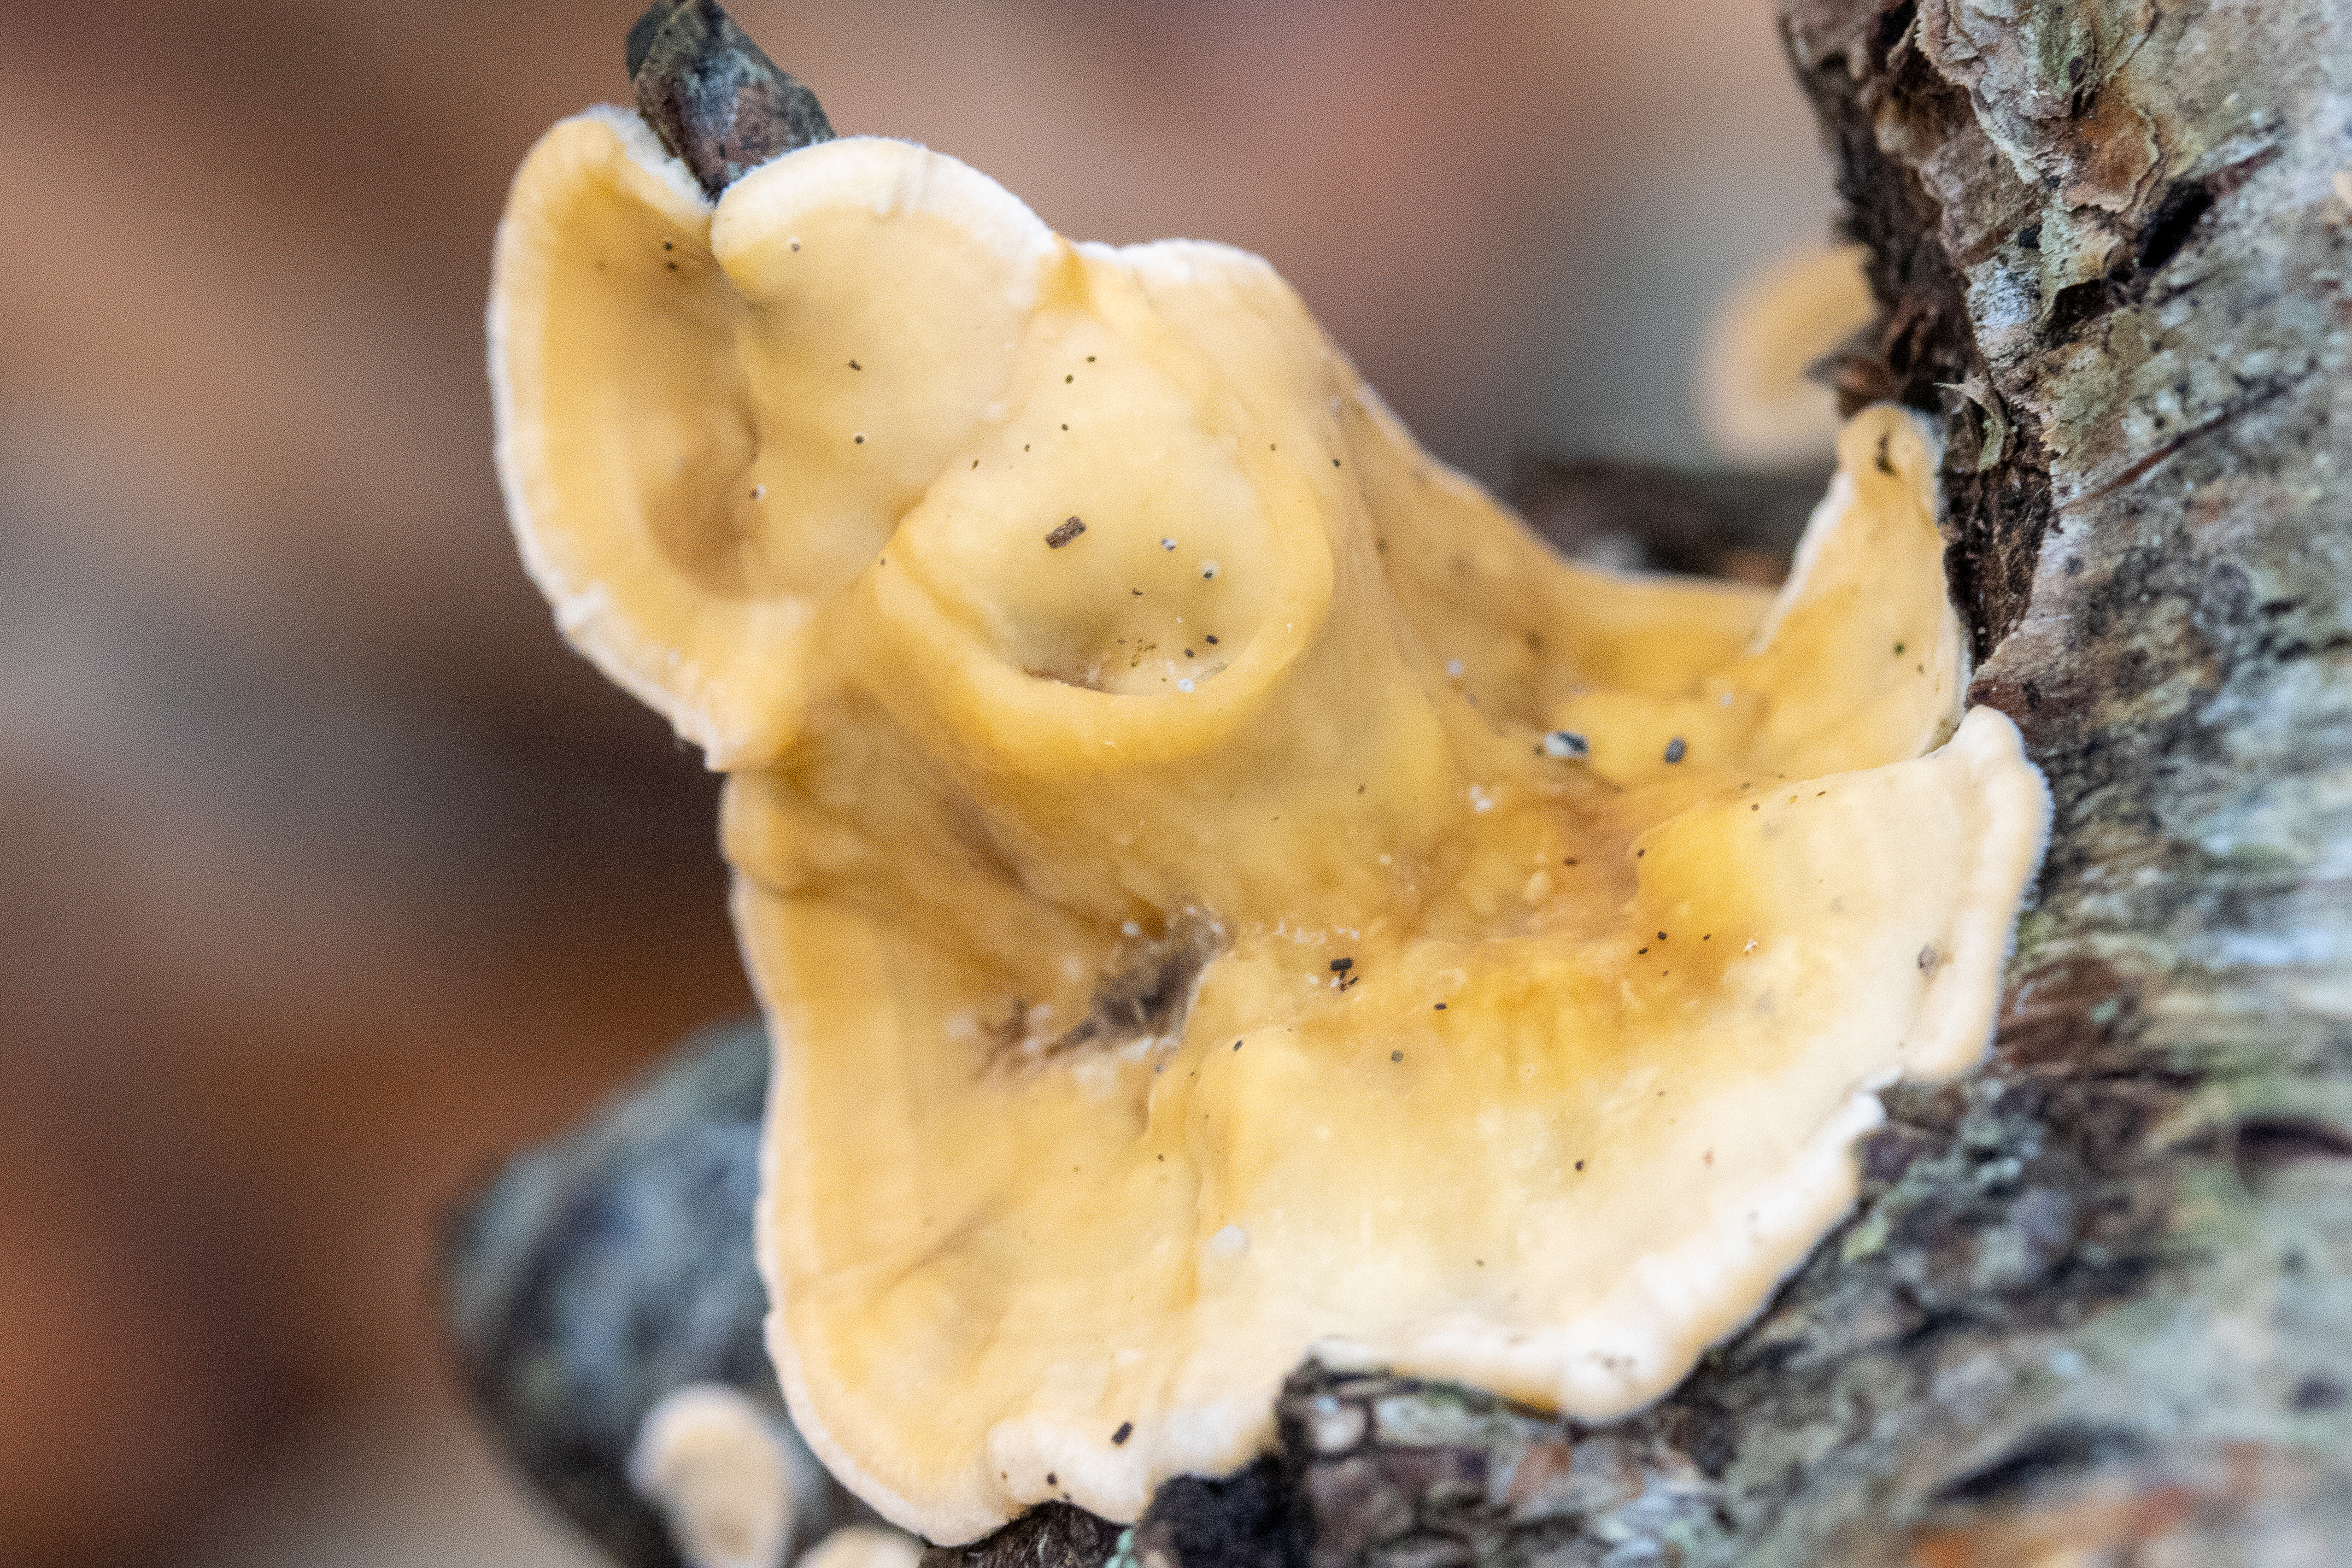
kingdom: Fungi
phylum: Basidiomycota
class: Agaricomycetes
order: Russulales
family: Stereaceae
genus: Stereum
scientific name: Stereum hirsutum
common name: Håret lædersvamp
